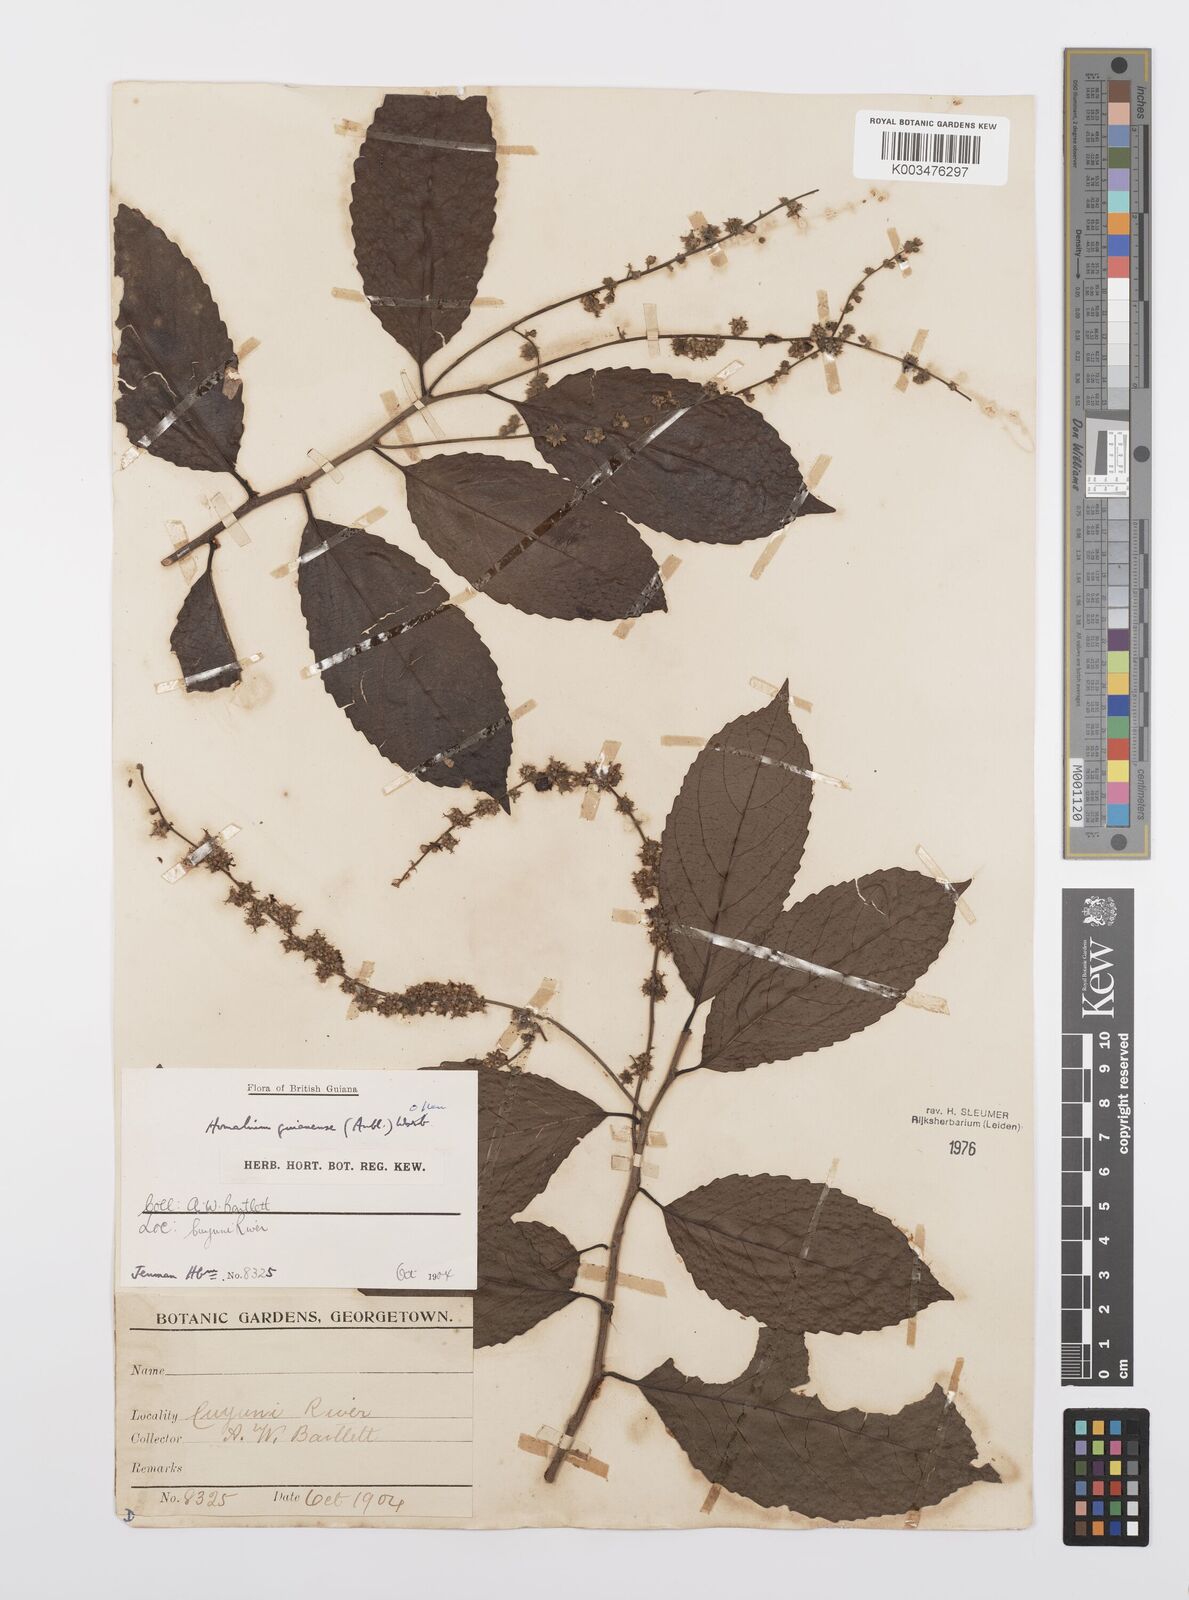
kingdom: Plantae
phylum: Tracheophyta
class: Magnoliopsida
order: Malpighiales
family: Salicaceae
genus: Homalium
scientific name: Homalium guianense
